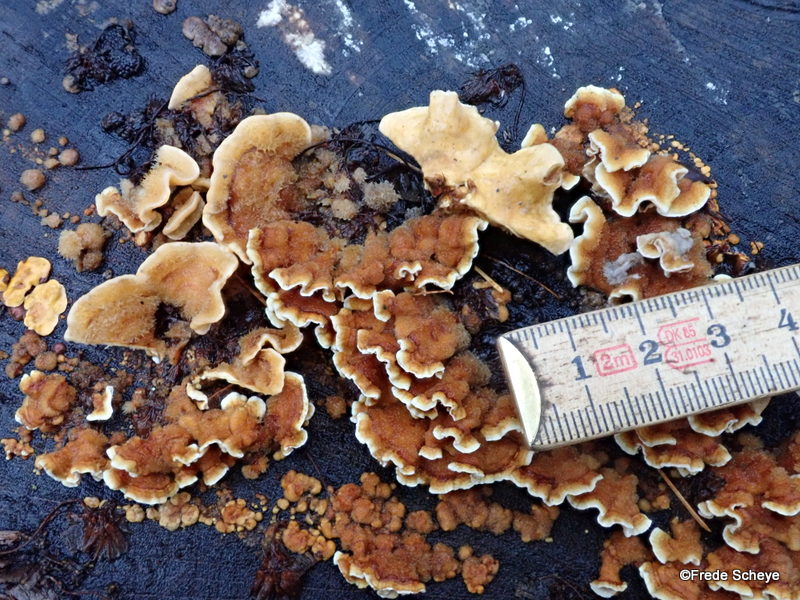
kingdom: Fungi
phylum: Basidiomycota
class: Agaricomycetes
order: Russulales
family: Stereaceae
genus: Stereum
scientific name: Stereum hirsutum
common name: håret lædersvamp
